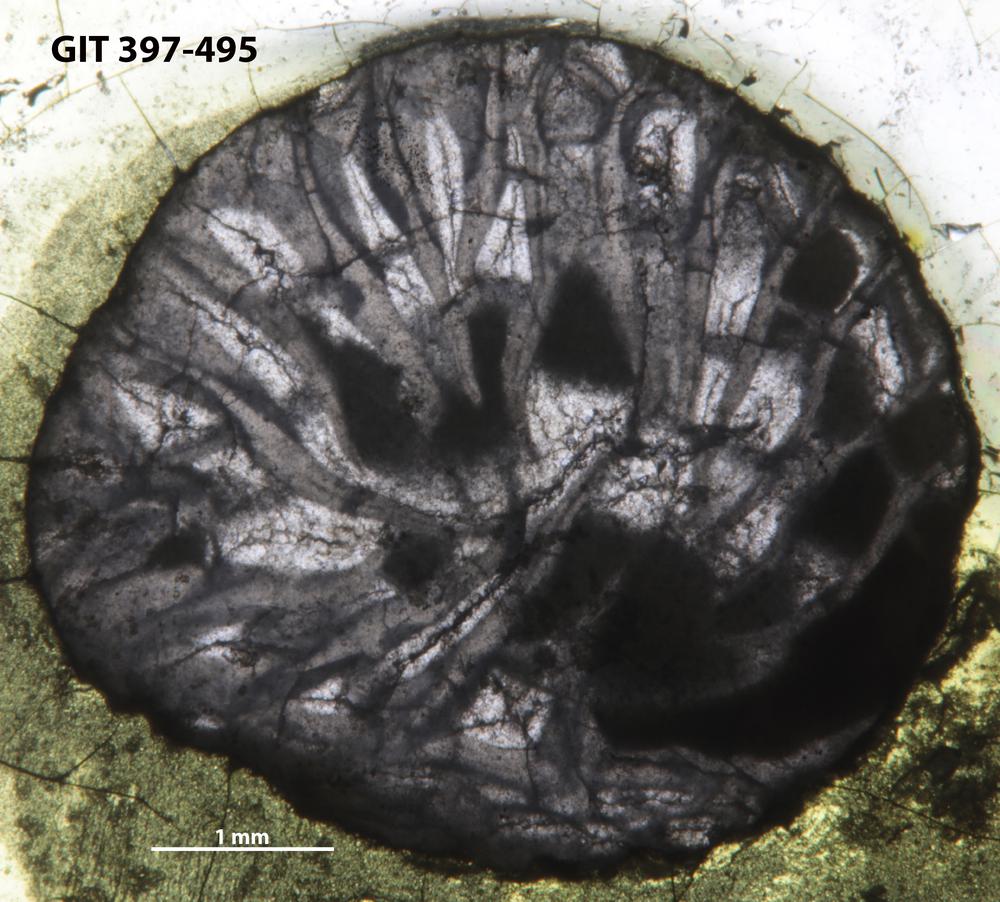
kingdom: Animalia
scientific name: Animalia
